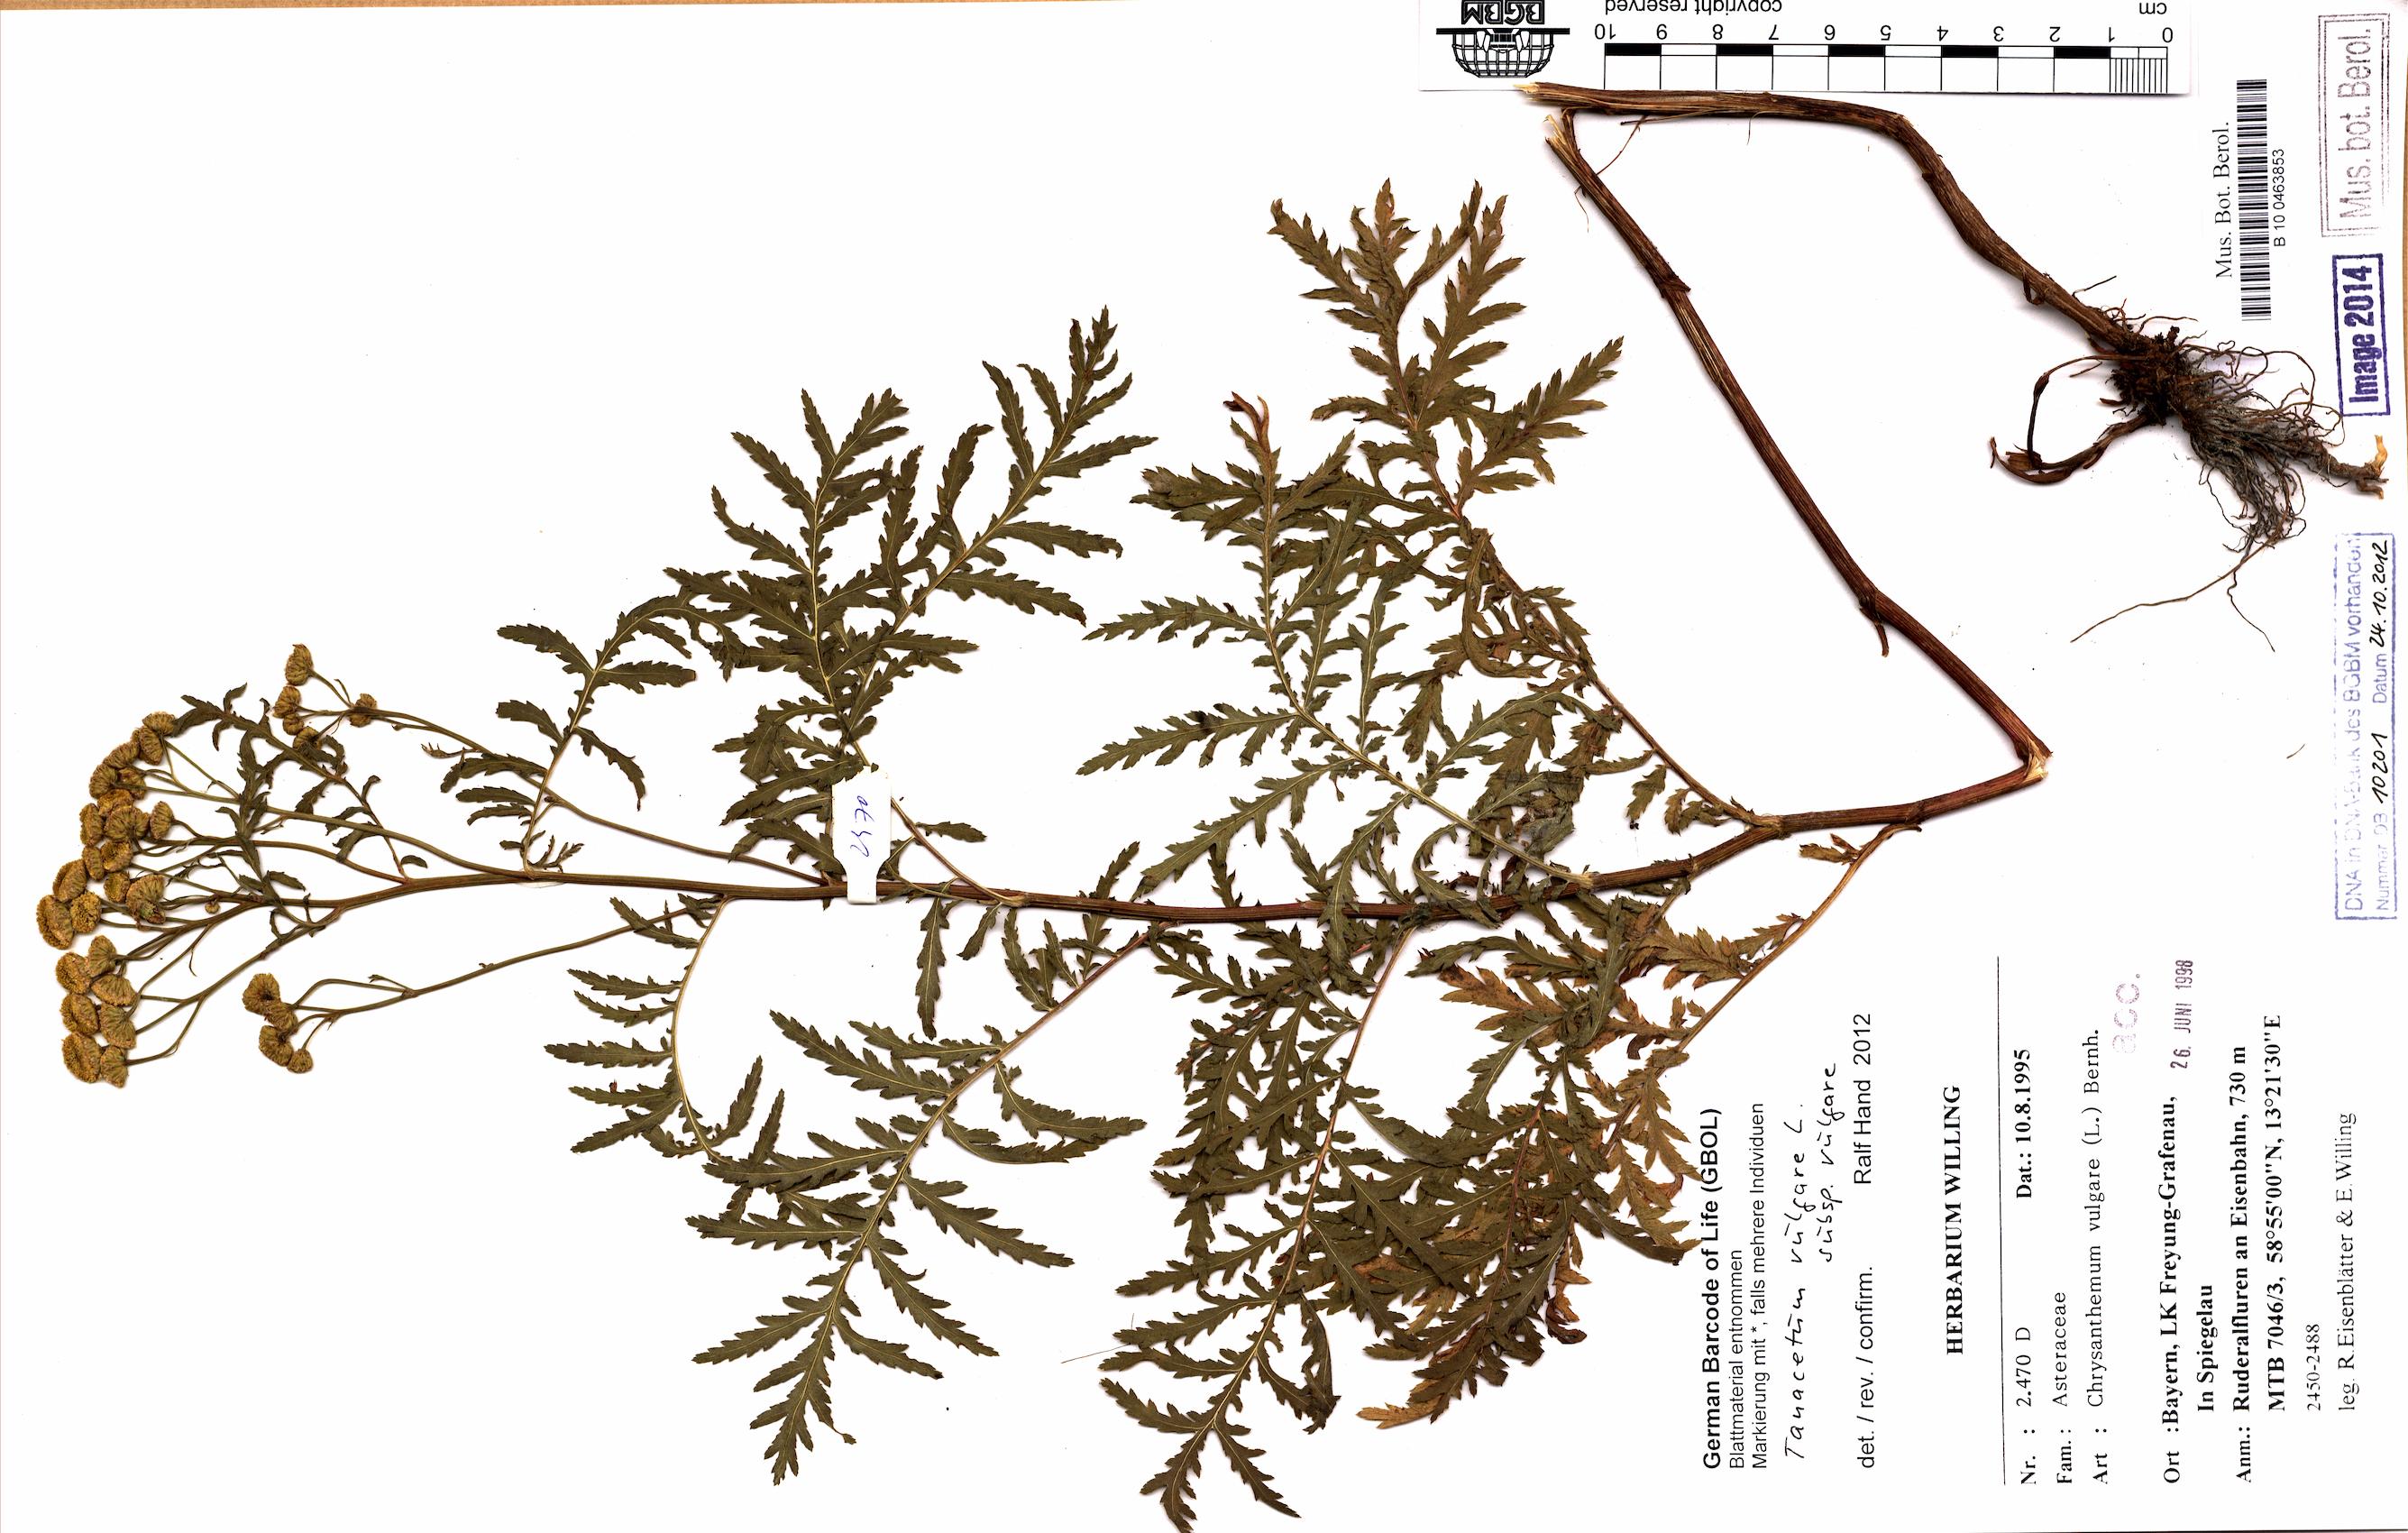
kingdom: Plantae
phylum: Tracheophyta
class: Magnoliopsida
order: Asterales
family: Asteraceae
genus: Tanacetum
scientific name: Tanacetum vulgare
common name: Common tansy
